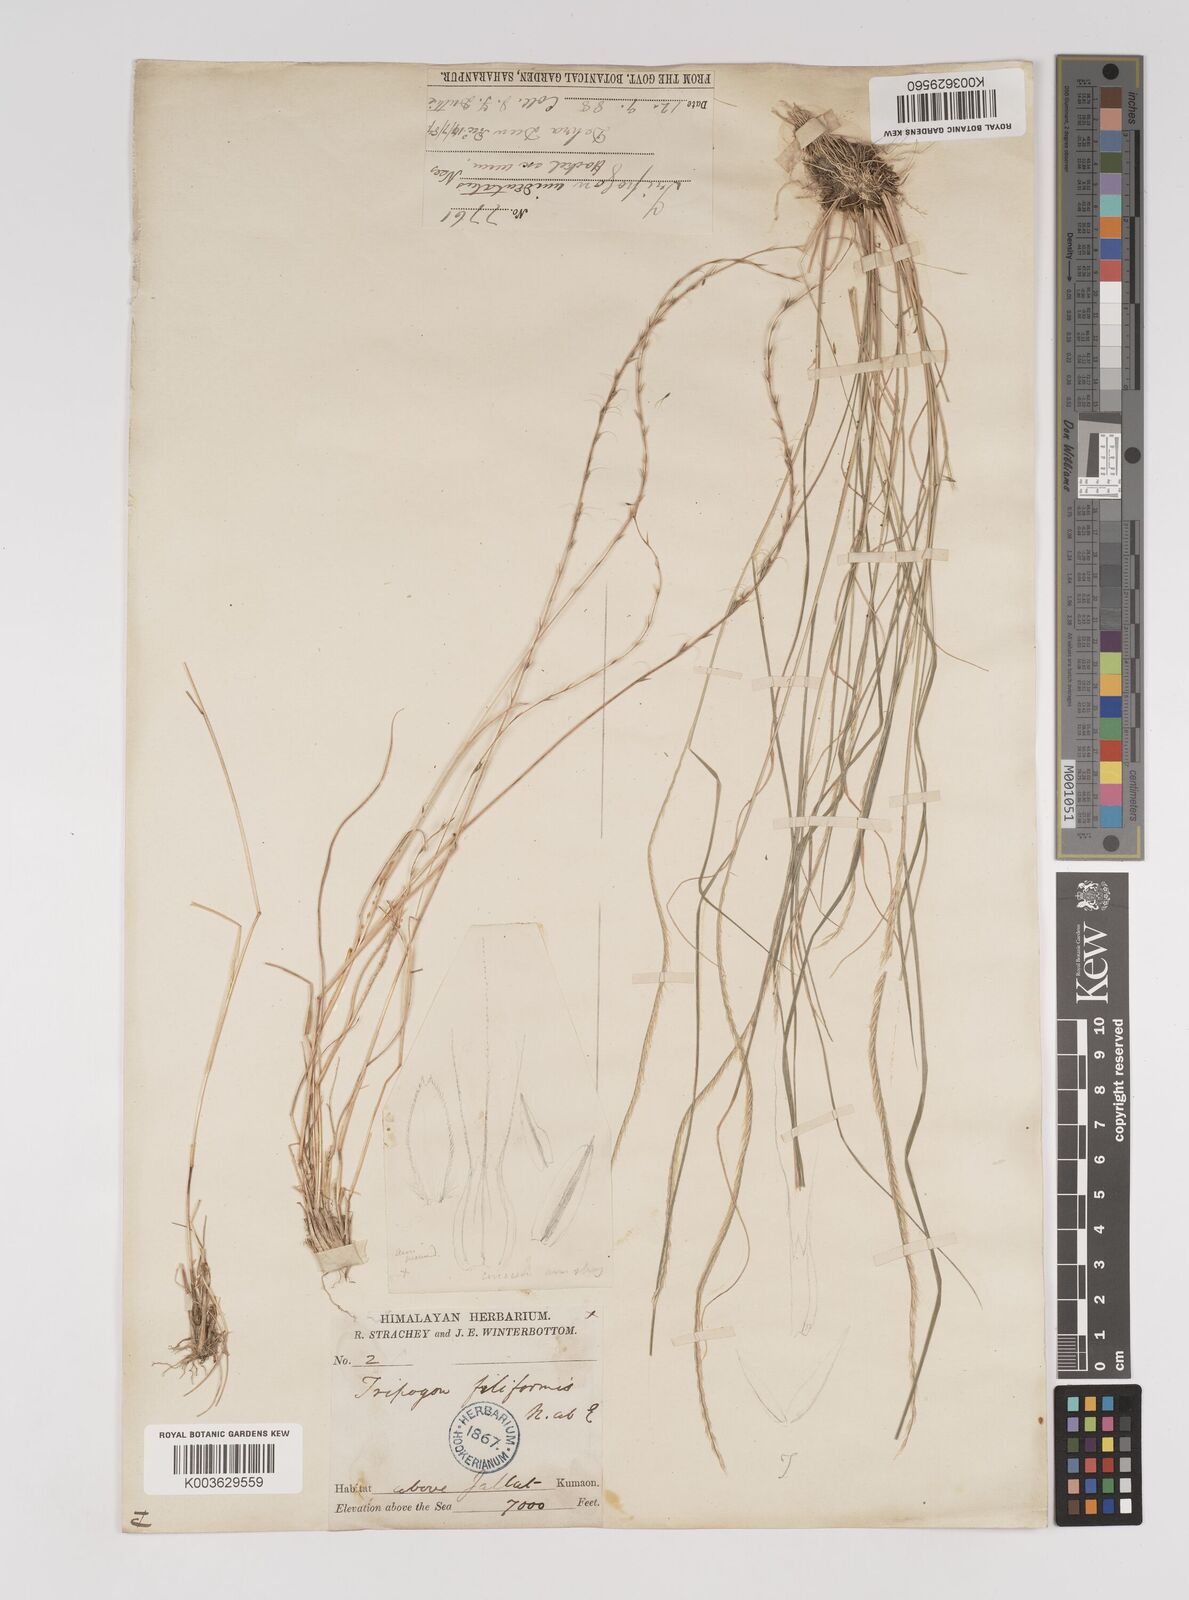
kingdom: Plantae
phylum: Tracheophyta
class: Liliopsida
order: Poales
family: Poaceae
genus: Tripogon
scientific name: Tripogon filiformis
